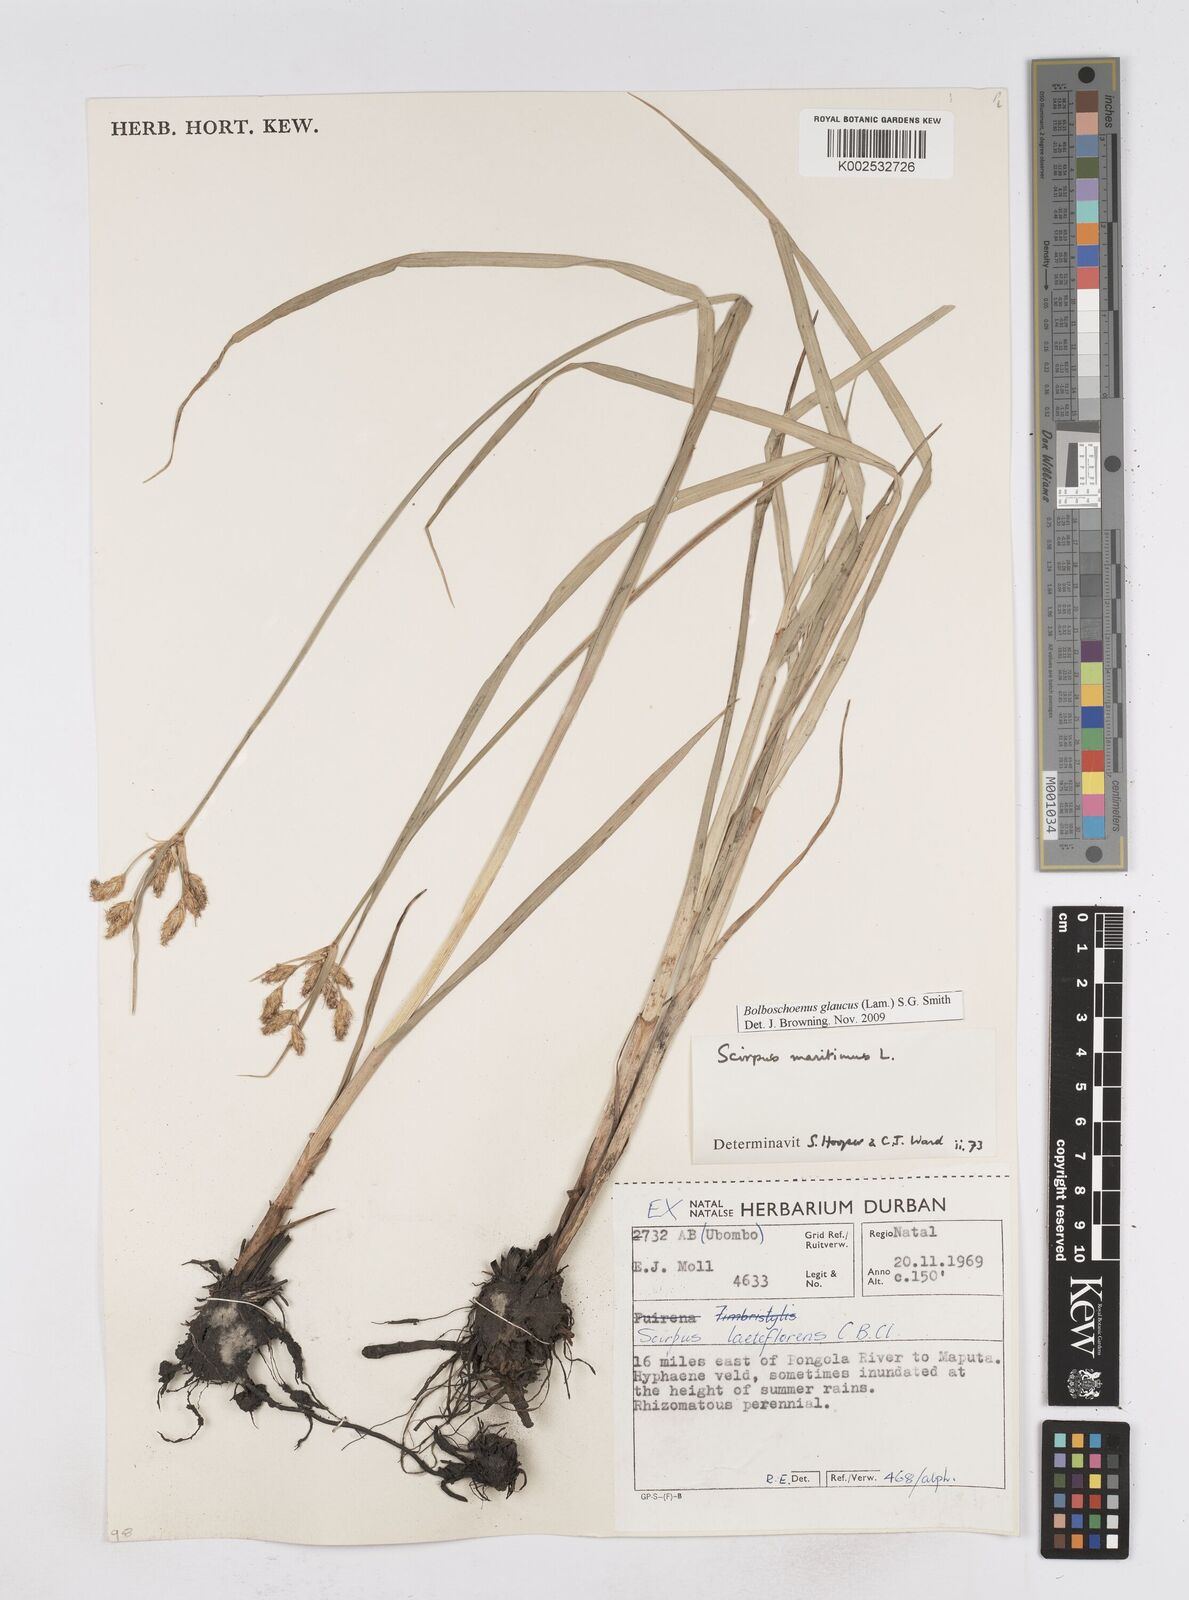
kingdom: Plantae
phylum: Tracheophyta
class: Liliopsida
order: Poales
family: Cyperaceae
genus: Bolboschoenus
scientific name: Bolboschoenus maritimus
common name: Sea club-rush
